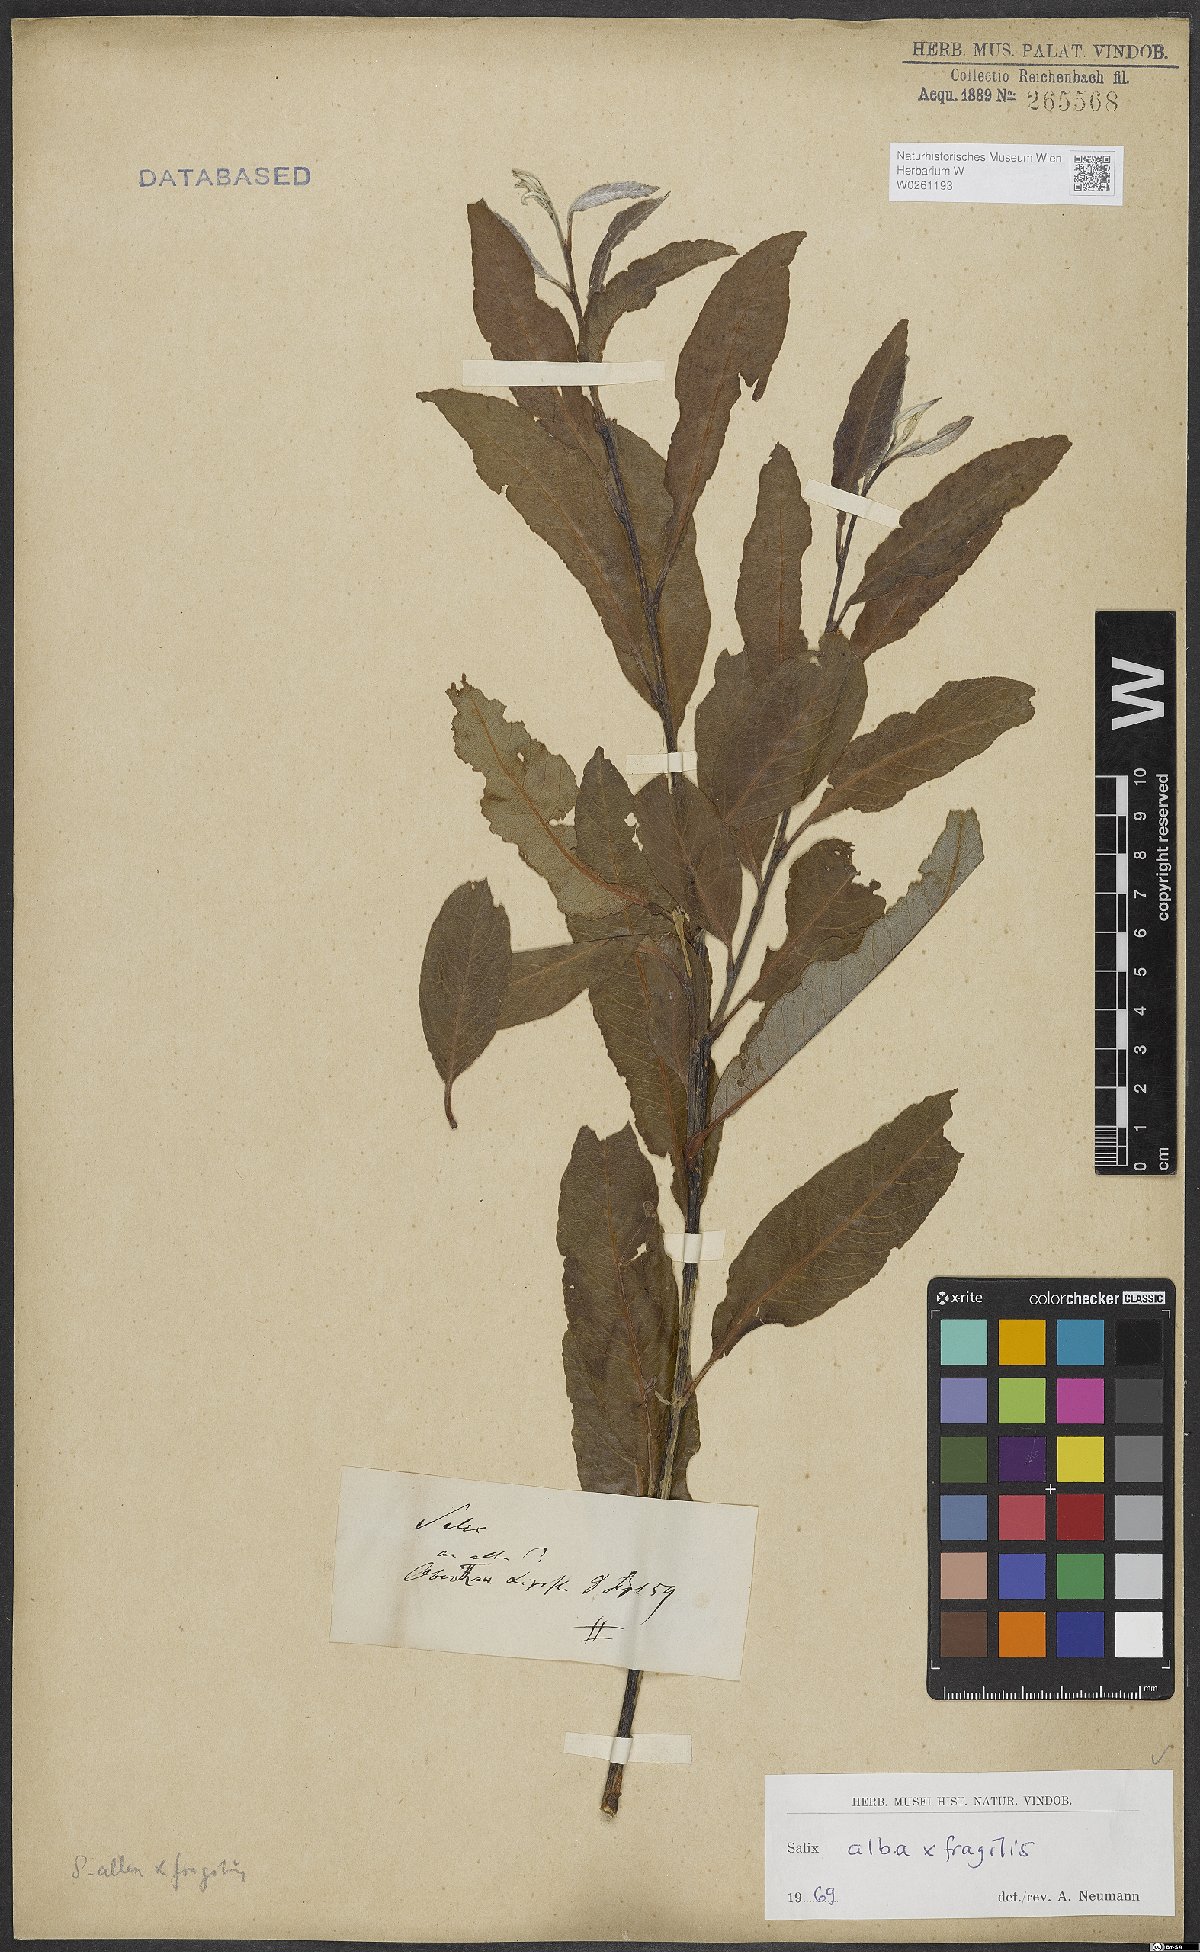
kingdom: Plantae
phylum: Tracheophyta
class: Magnoliopsida
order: Malpighiales
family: Salicaceae
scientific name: Salicaceae
